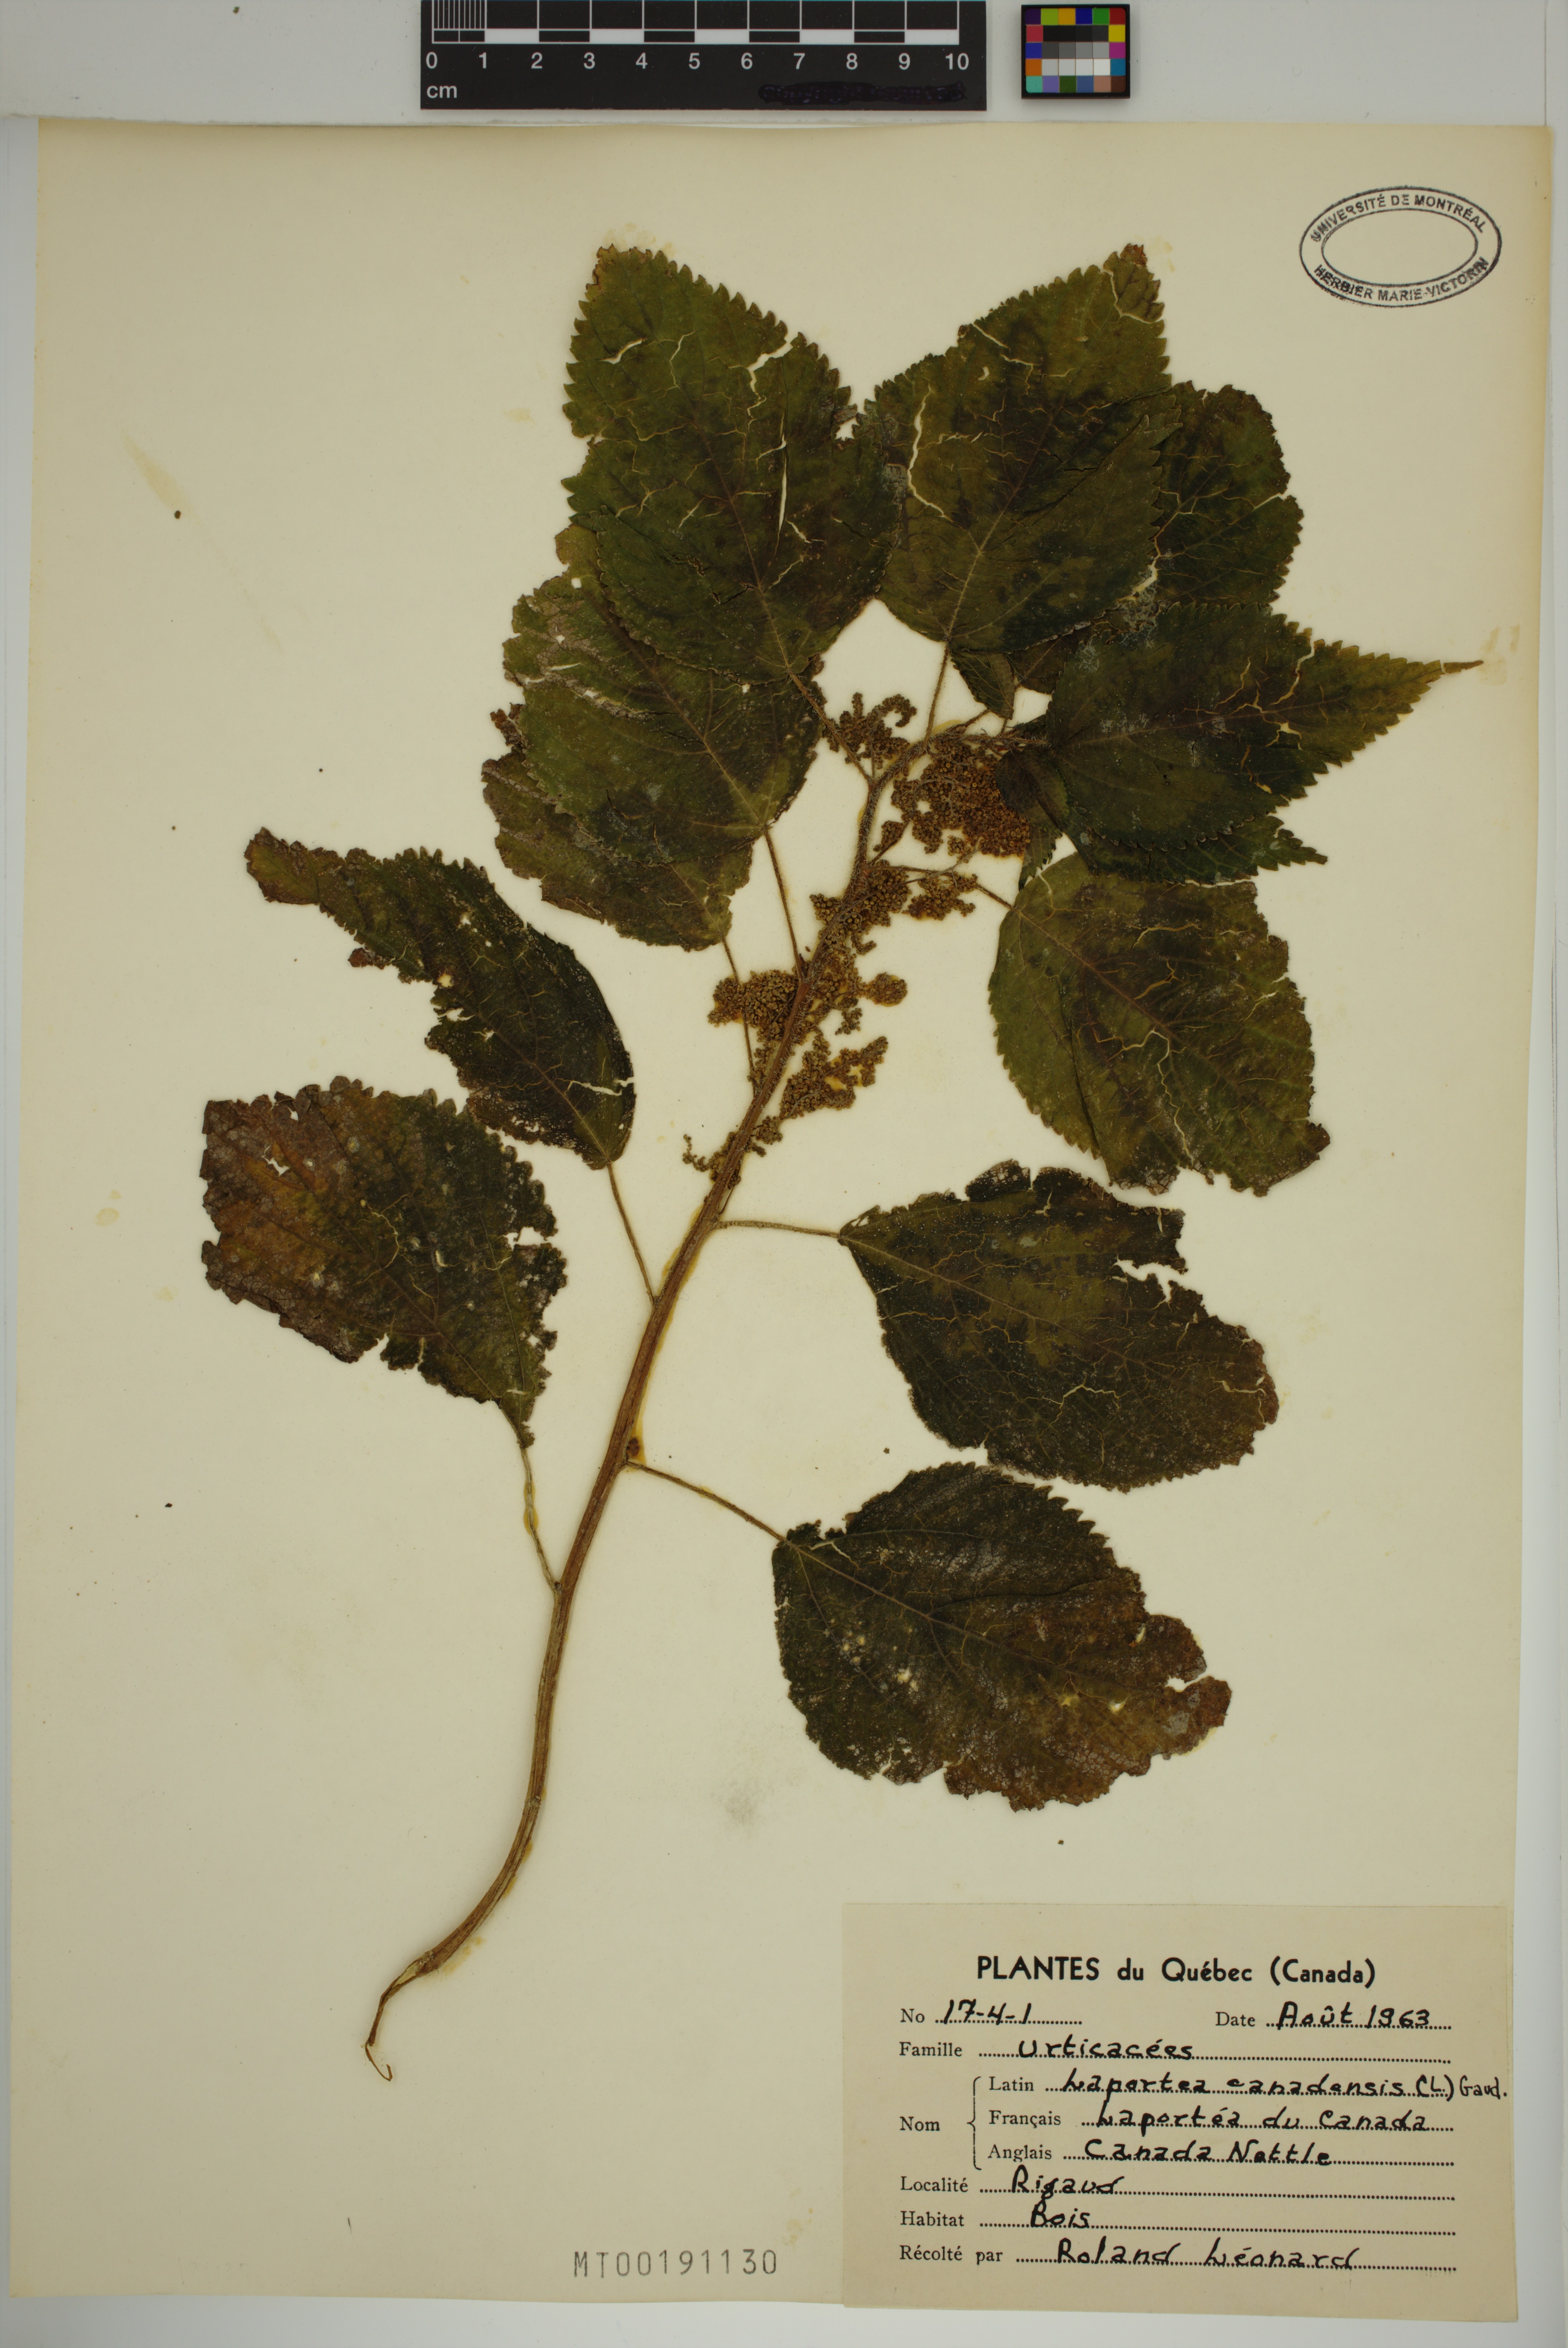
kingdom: Plantae
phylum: Tracheophyta
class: Magnoliopsida
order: Rosales
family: Urticaceae
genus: Laportea
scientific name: Laportea canadensis
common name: Canada nettle
